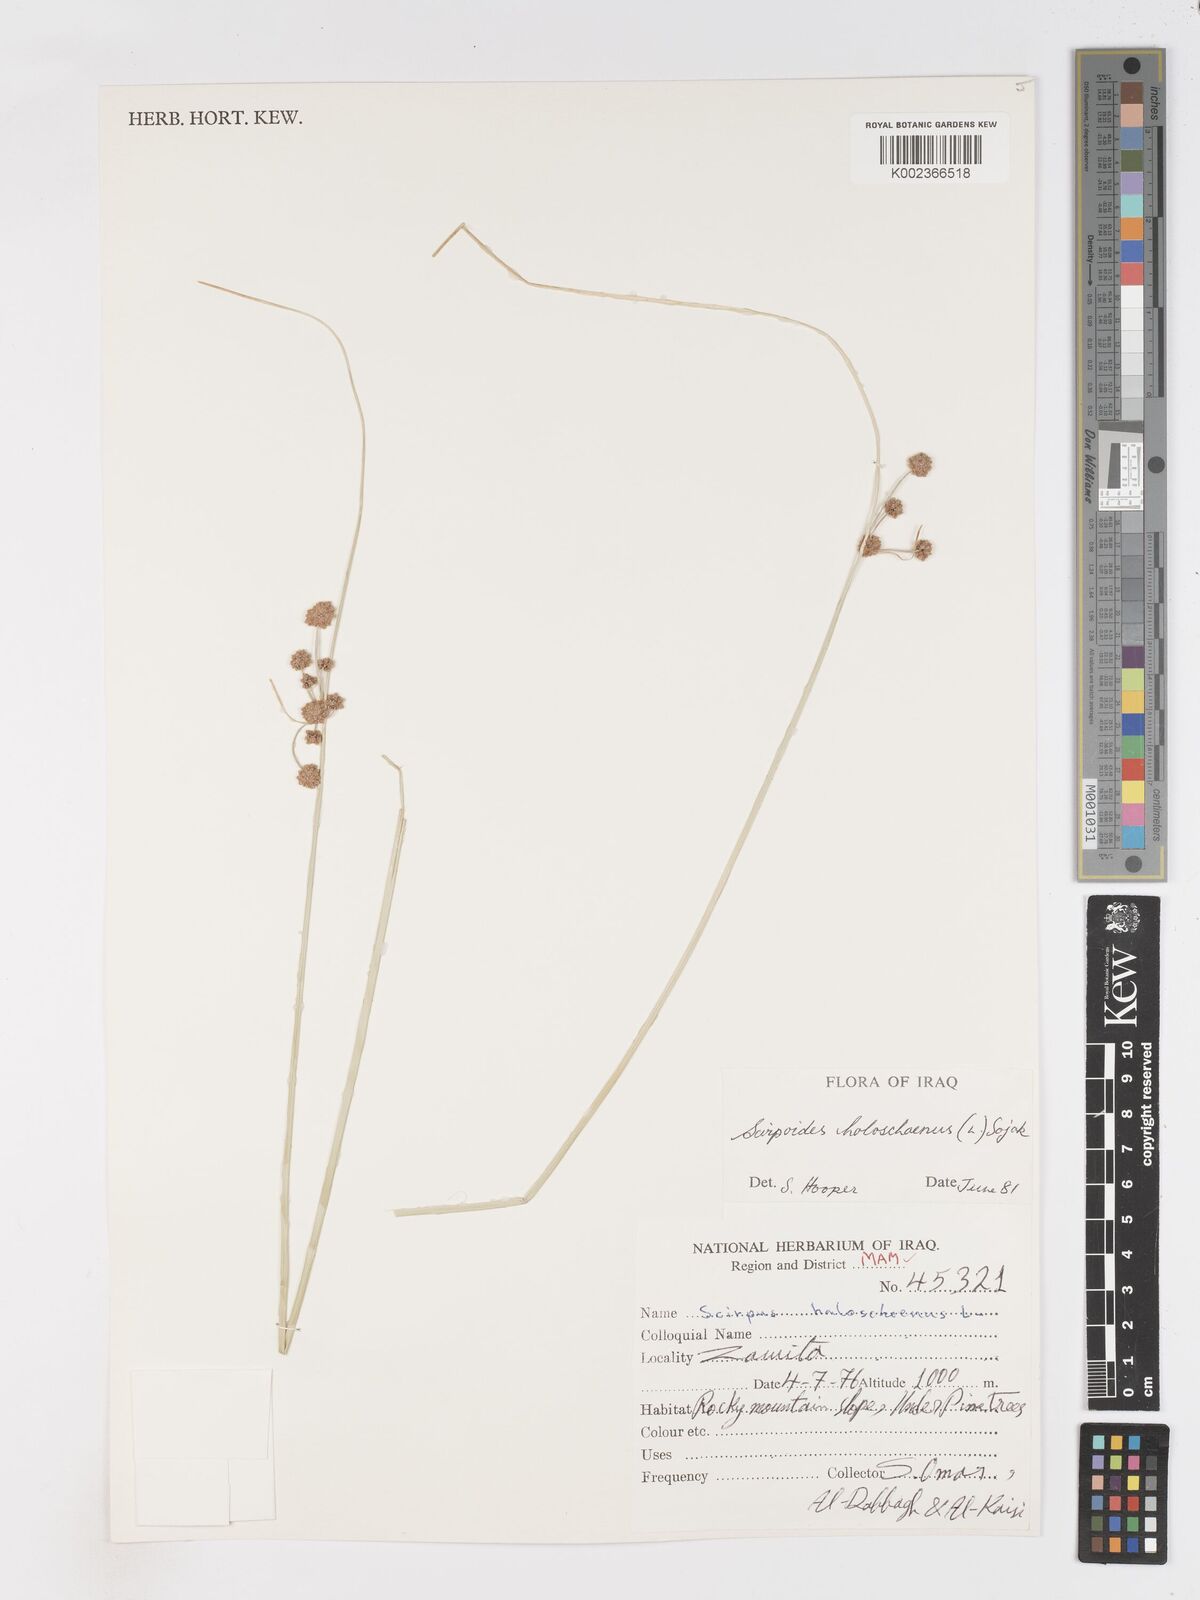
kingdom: Plantae
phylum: Tracheophyta
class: Liliopsida
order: Poales
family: Cyperaceae
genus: Scirpoides
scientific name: Scirpoides holoschoenus
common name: Round-headed club-rush
